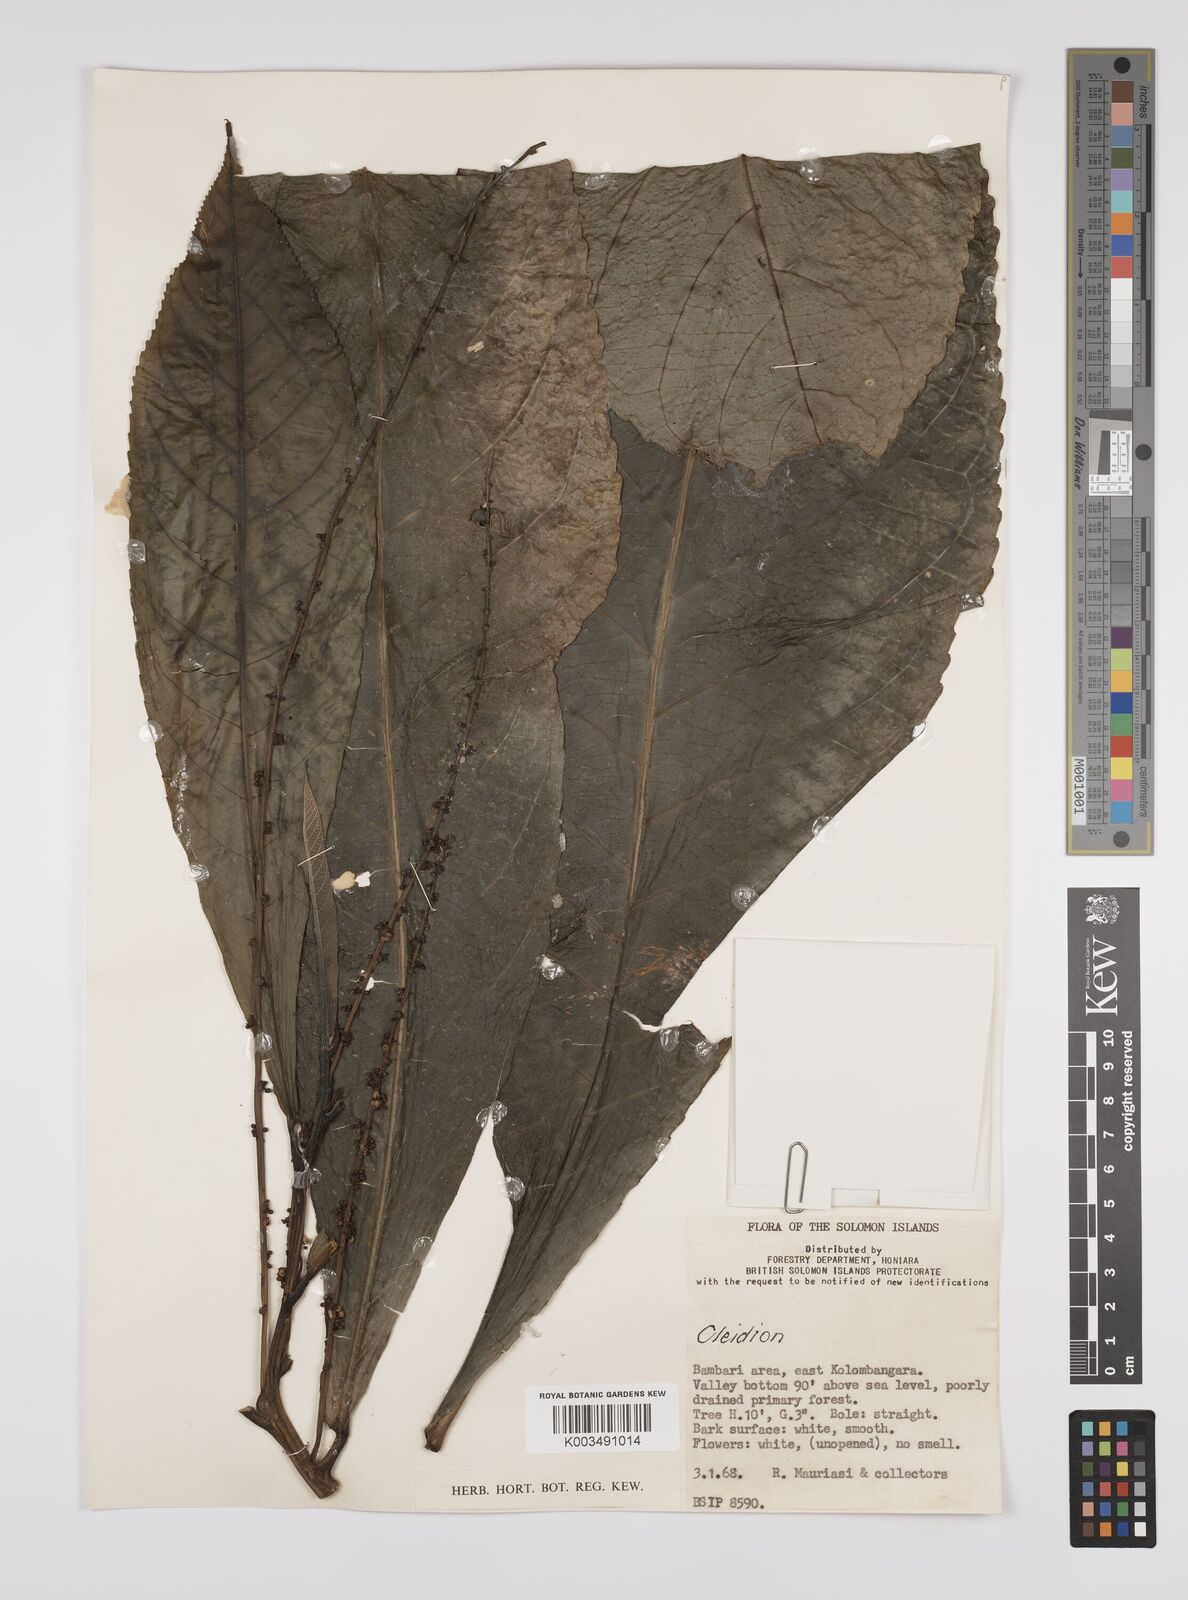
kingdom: Plantae
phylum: Tracheophyta
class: Magnoliopsida
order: Malpighiales
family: Euphorbiaceae
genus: Cleidion
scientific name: Cleidion papuanum
